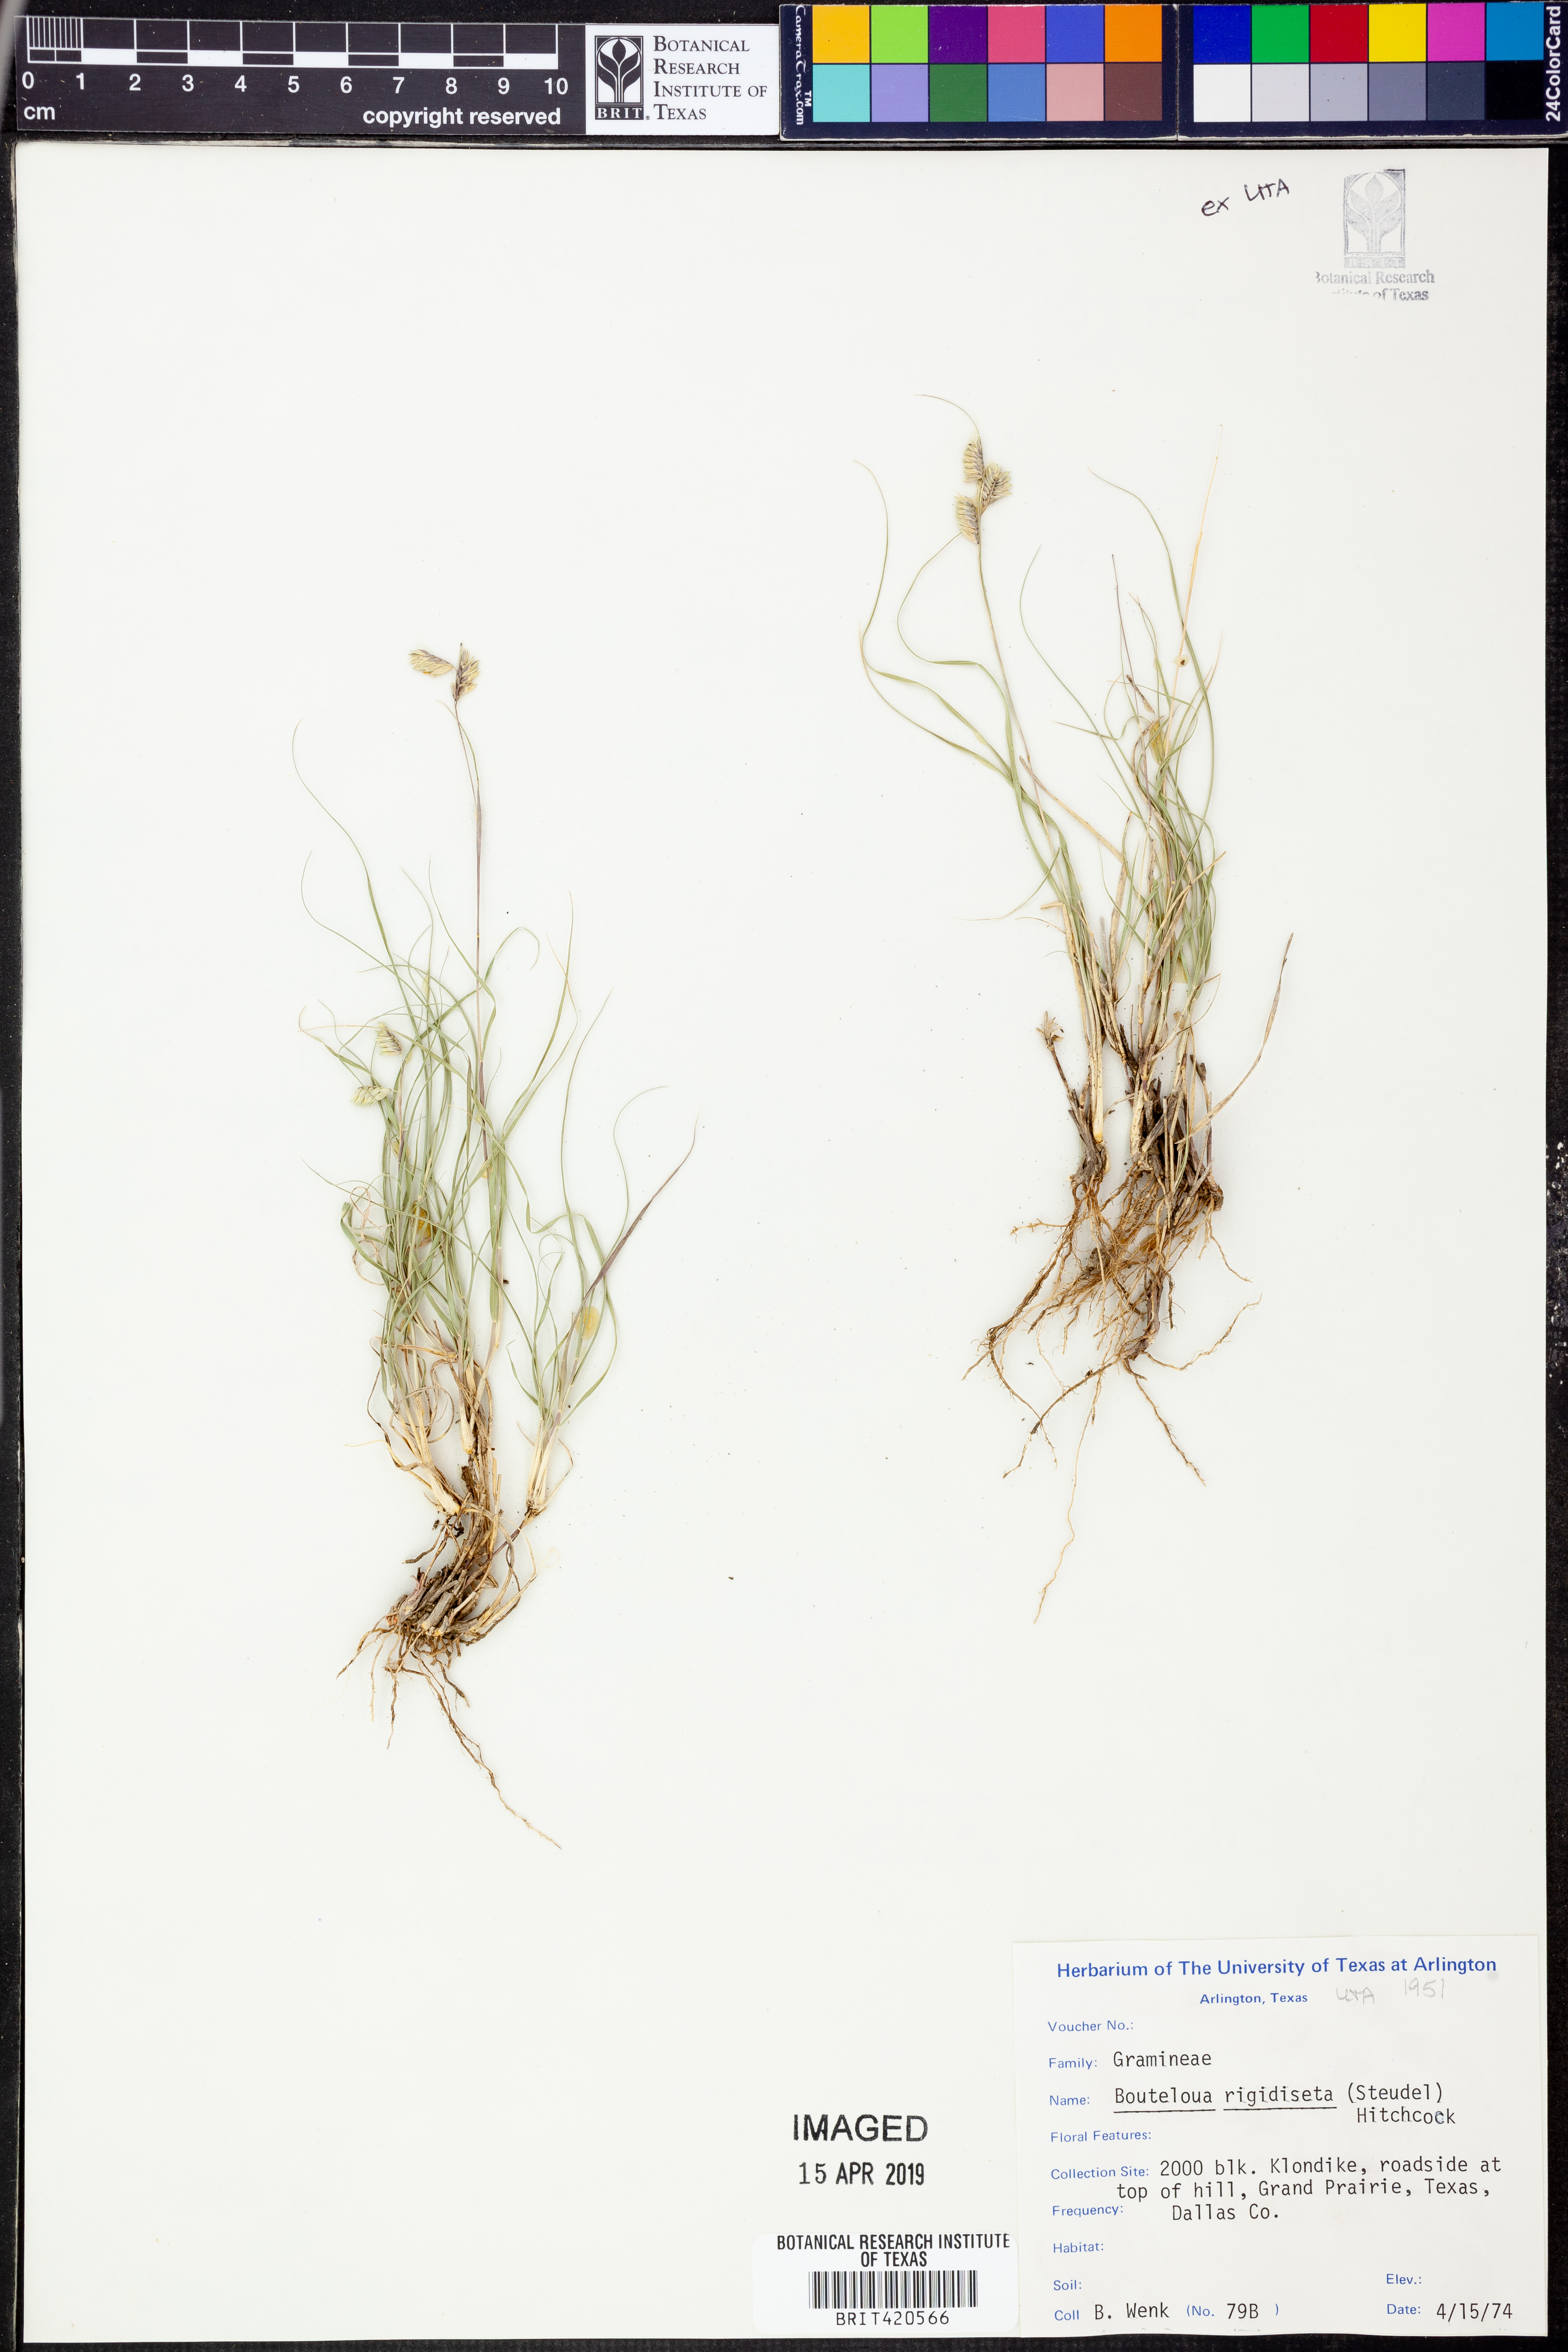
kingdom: Plantae
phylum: Tracheophyta
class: Liliopsida
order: Poales
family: Poaceae
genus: Bouteloua
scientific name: Bouteloua rigidiseta
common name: Texas grama
